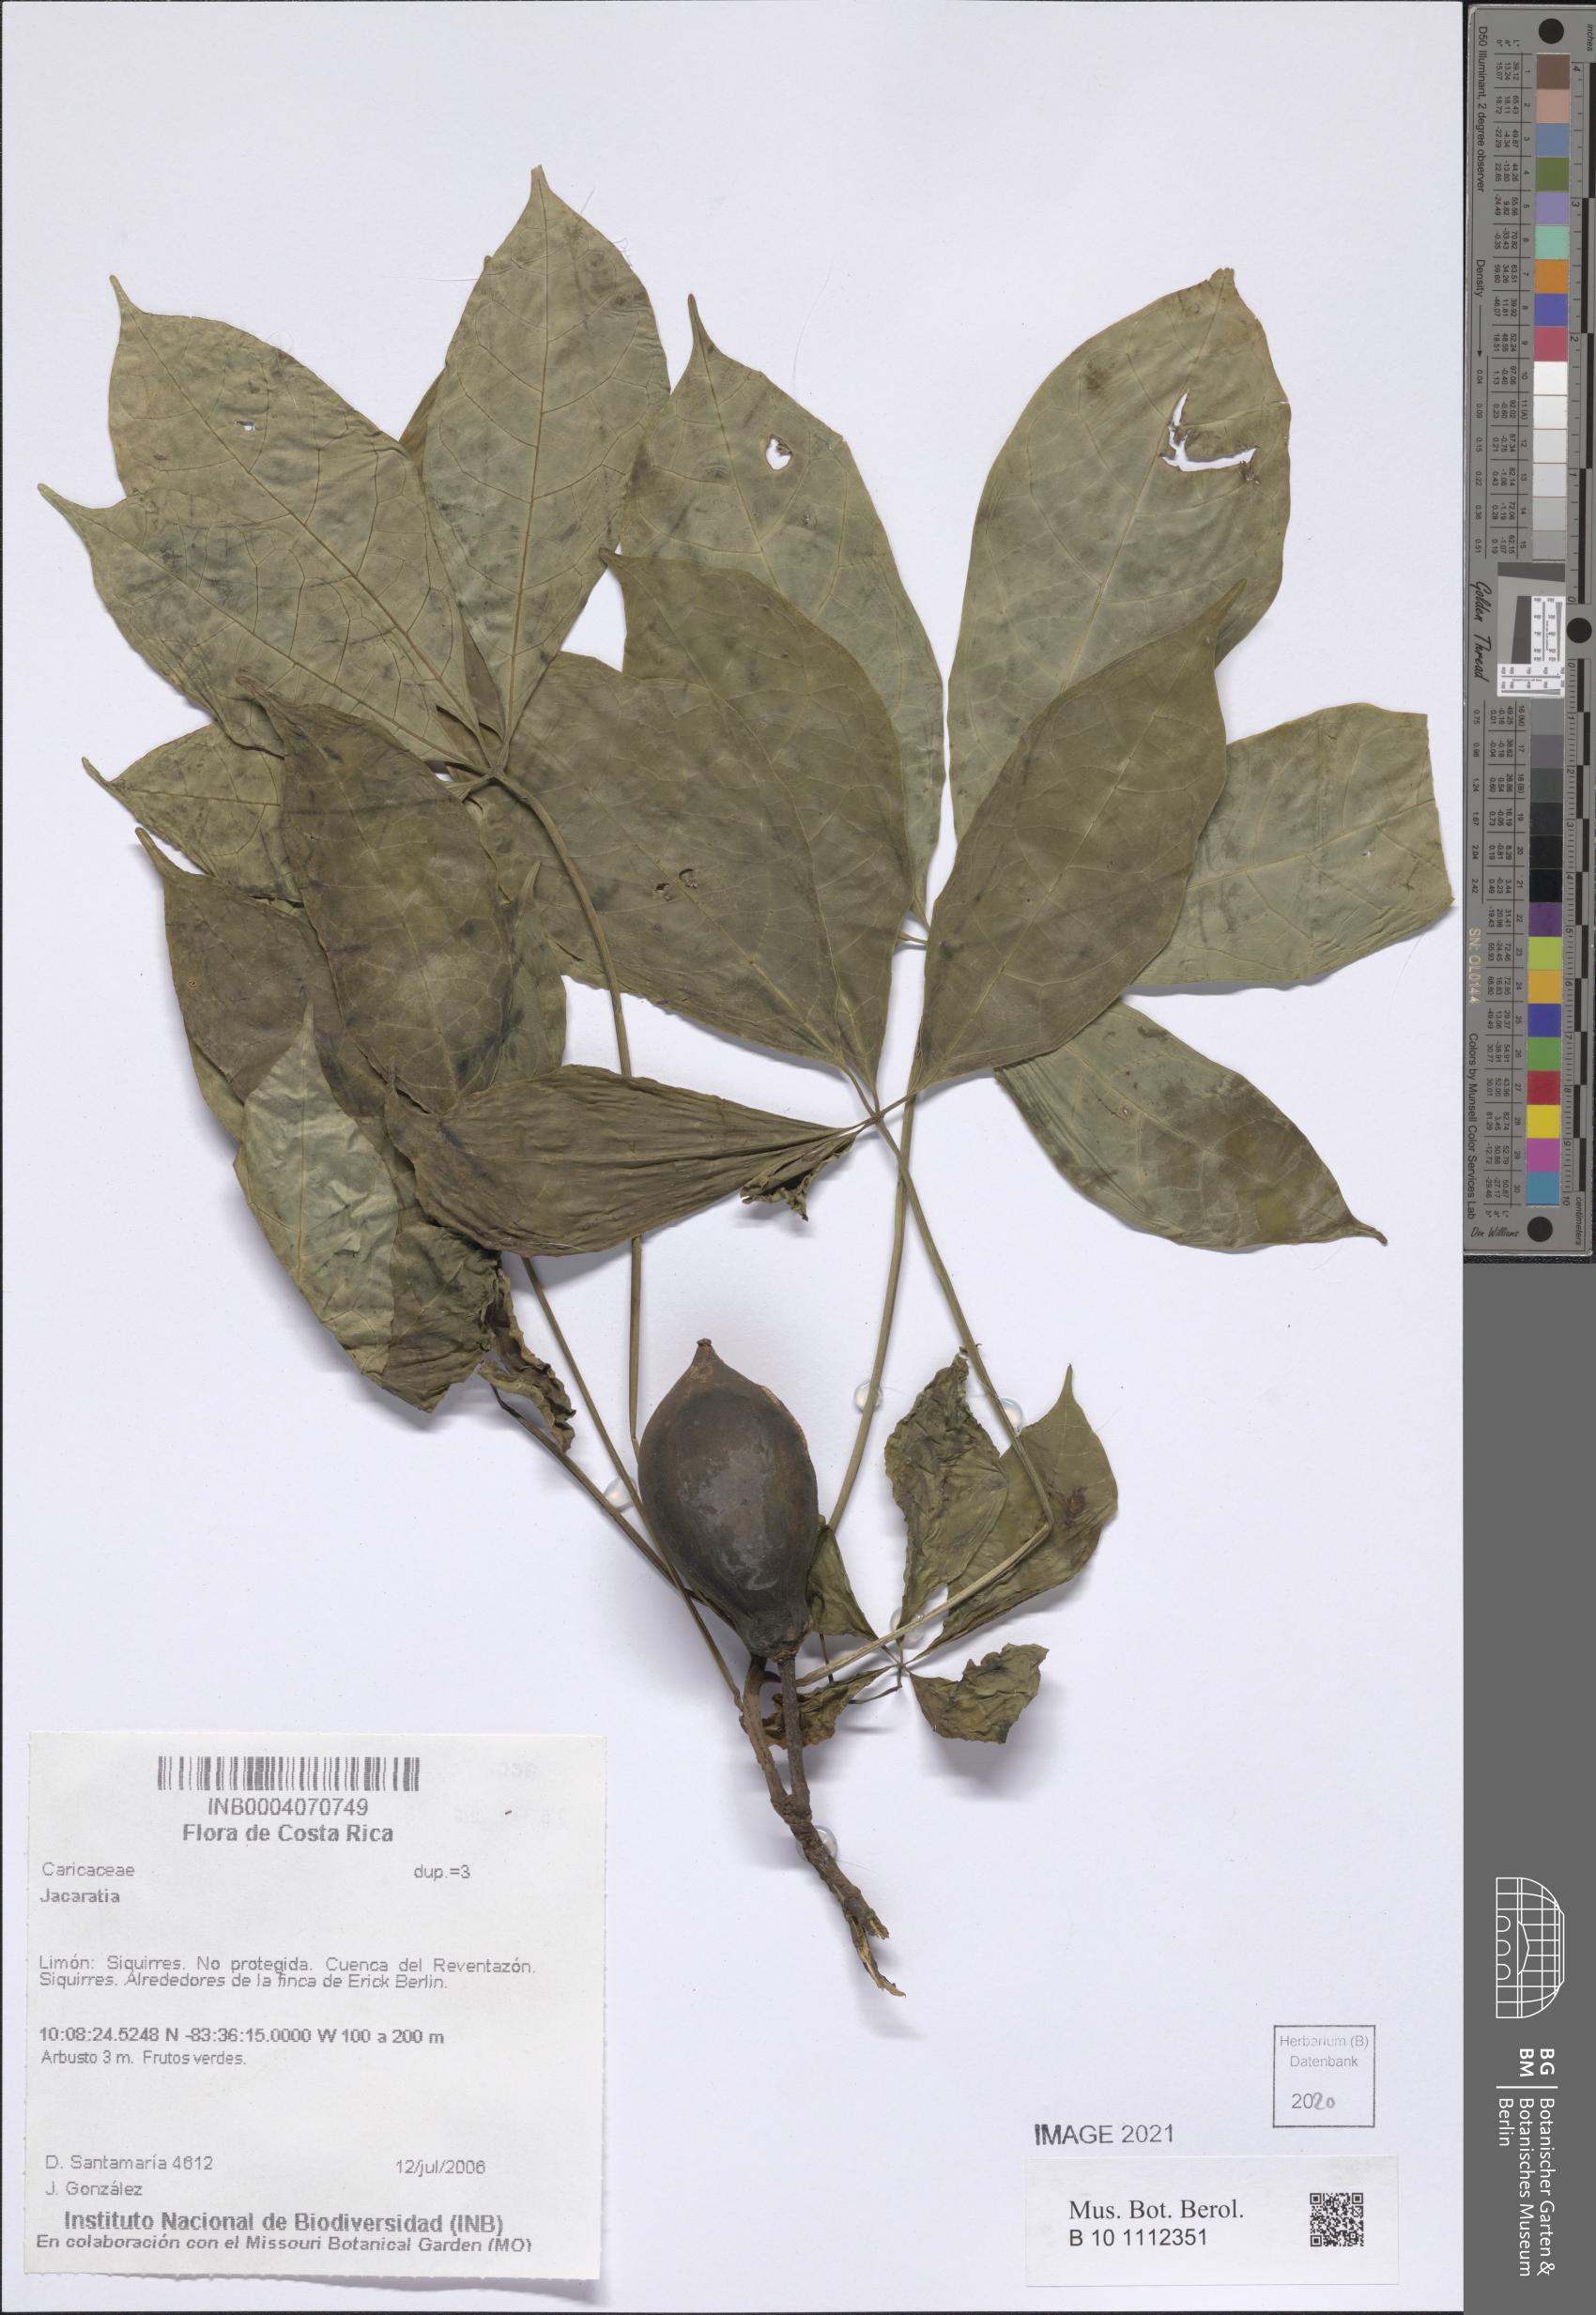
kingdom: Plantae
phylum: Tracheophyta
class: Magnoliopsida
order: Brassicales
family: Caricaceae
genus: Jacaratia
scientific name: Jacaratia
